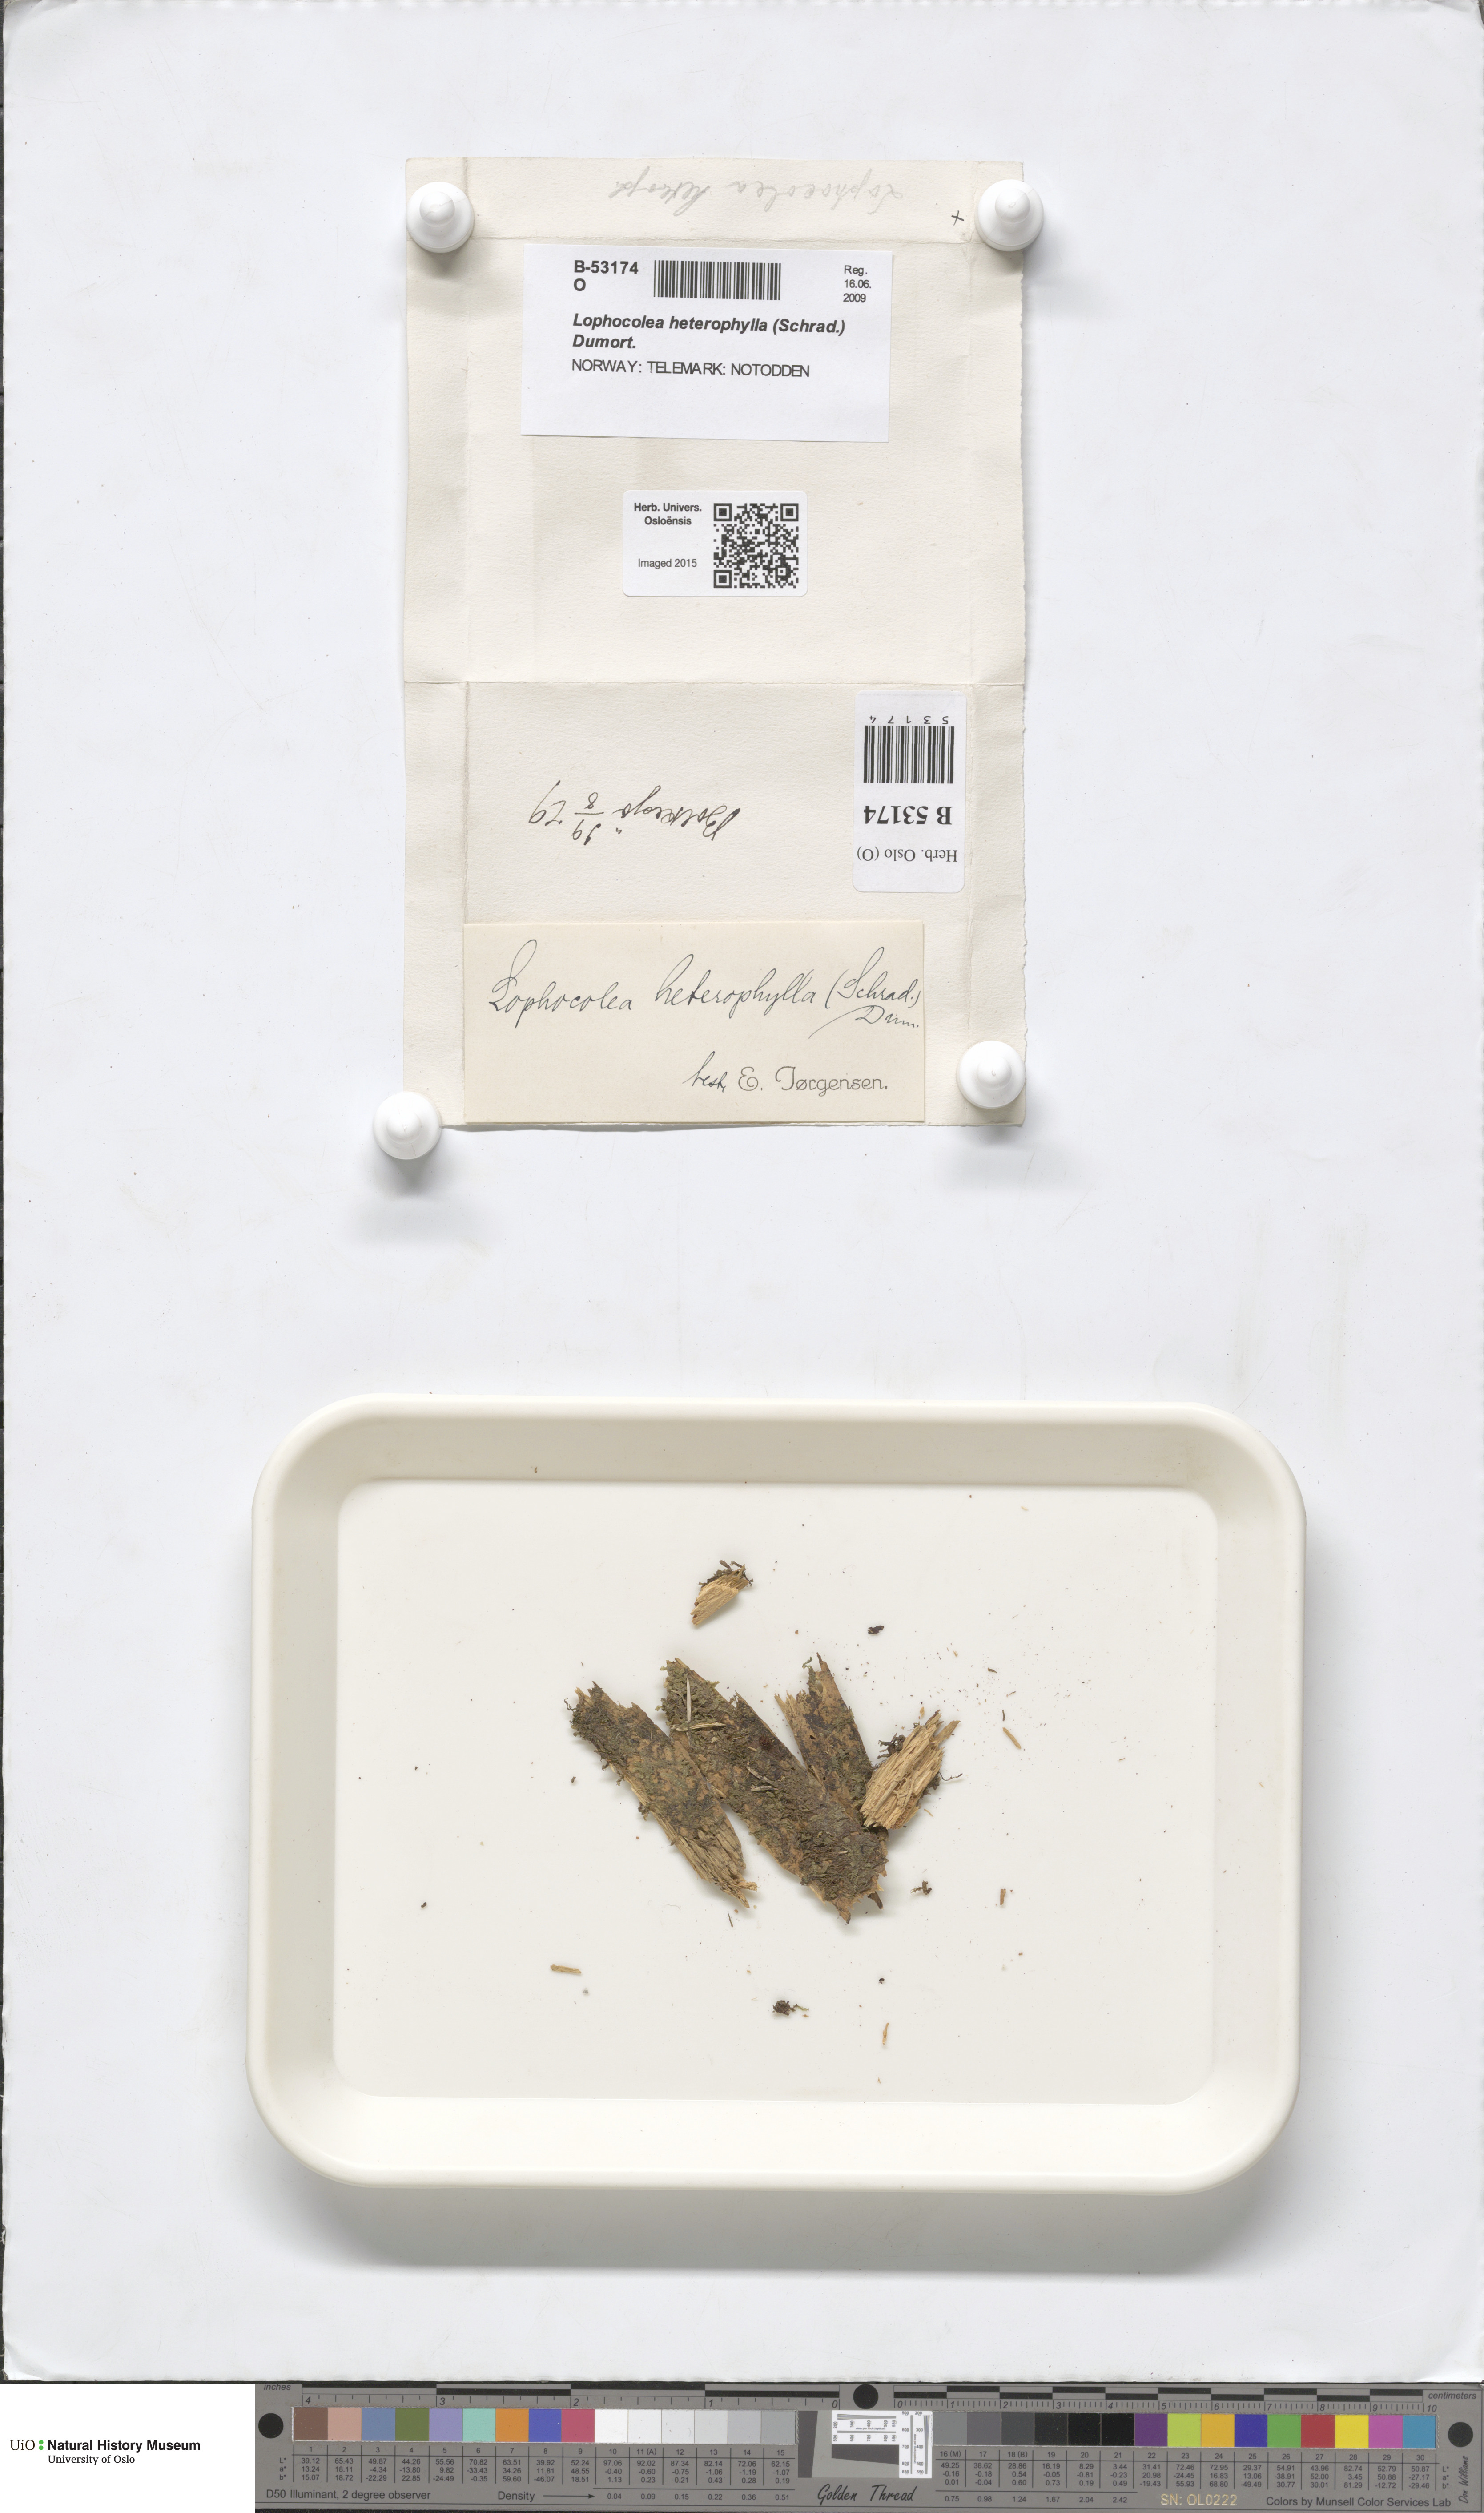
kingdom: Plantae
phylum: Marchantiophyta
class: Jungermanniopsida
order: Jungermanniales
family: Lophocoleaceae
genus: Lophocolea
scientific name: Lophocolea heterophylla
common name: Variable-leaved crestwort
